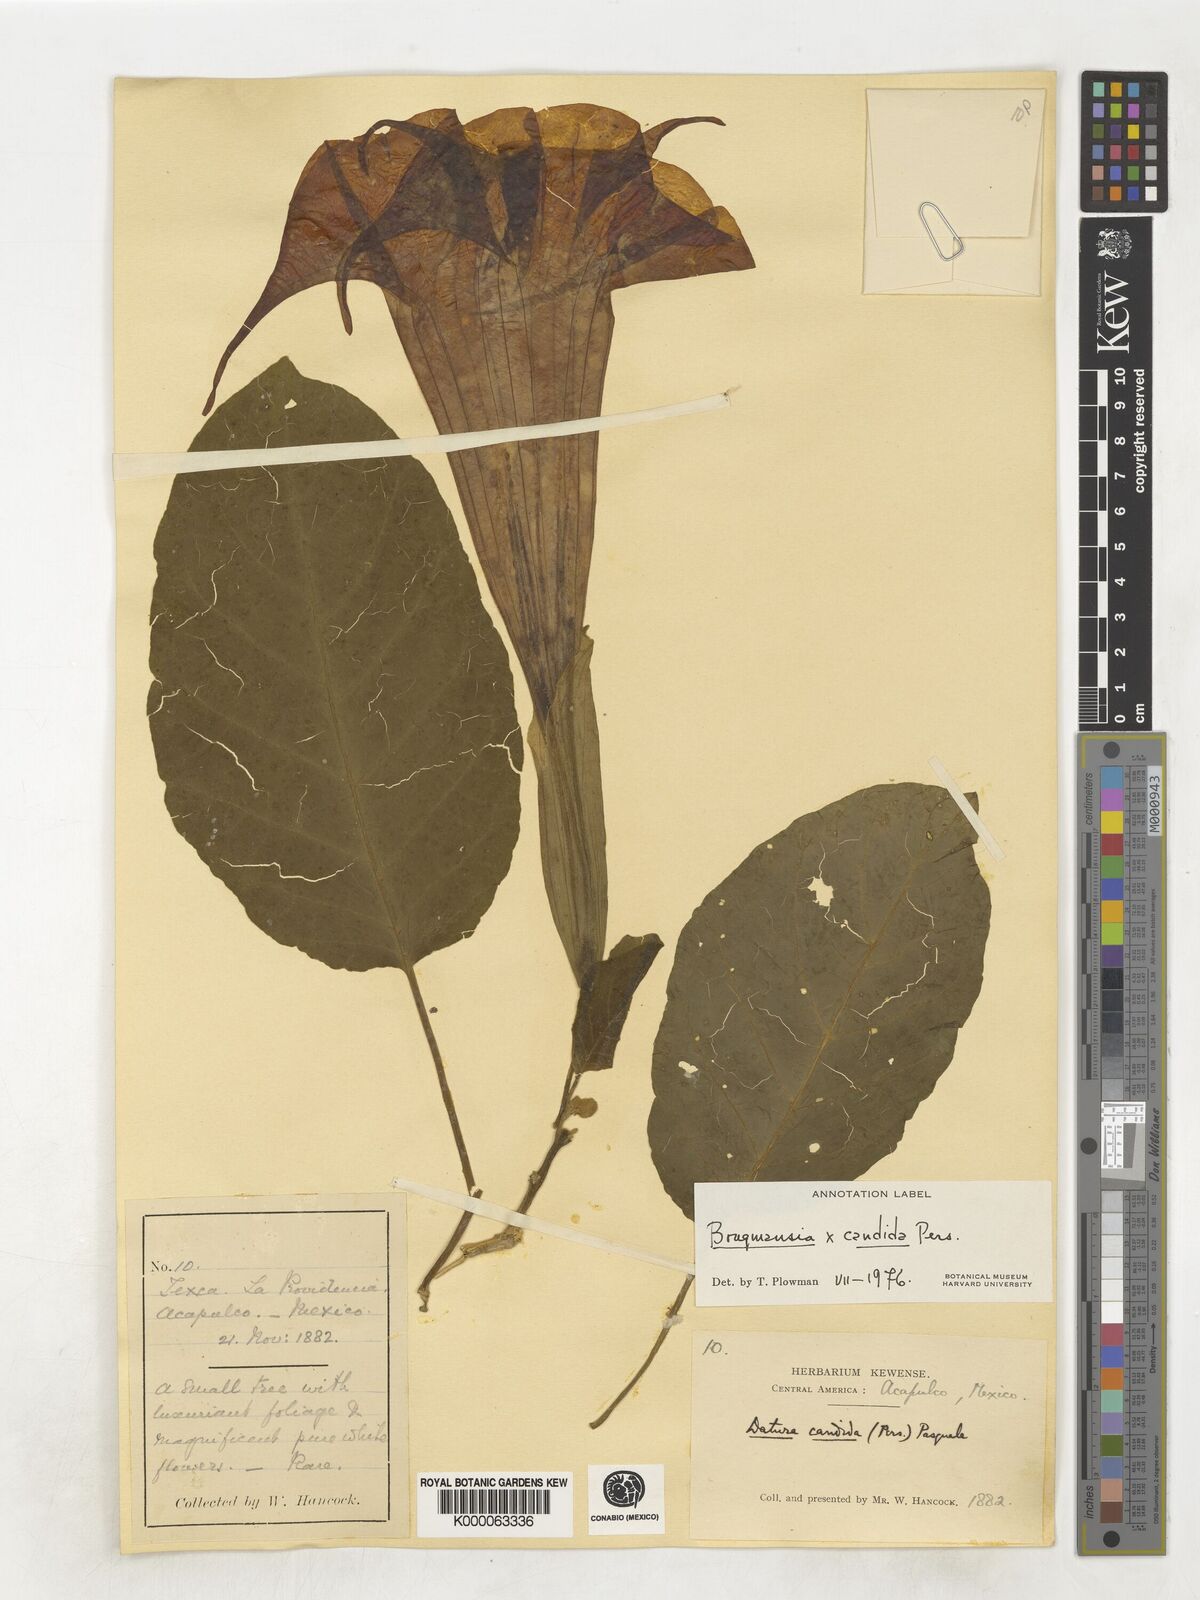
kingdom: Plantae
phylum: Tracheophyta
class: Magnoliopsida
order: Solanales
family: Solanaceae
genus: Brugmansia
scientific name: Brugmansia candida
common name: Angel's-trumpet
